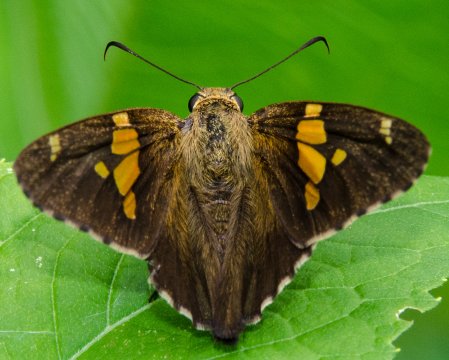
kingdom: Animalia
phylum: Arthropoda
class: Insecta
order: Lepidoptera
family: Hesperiidae
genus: Epargyreus
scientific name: Epargyreus clarus
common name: Silver-spotted Skipper
